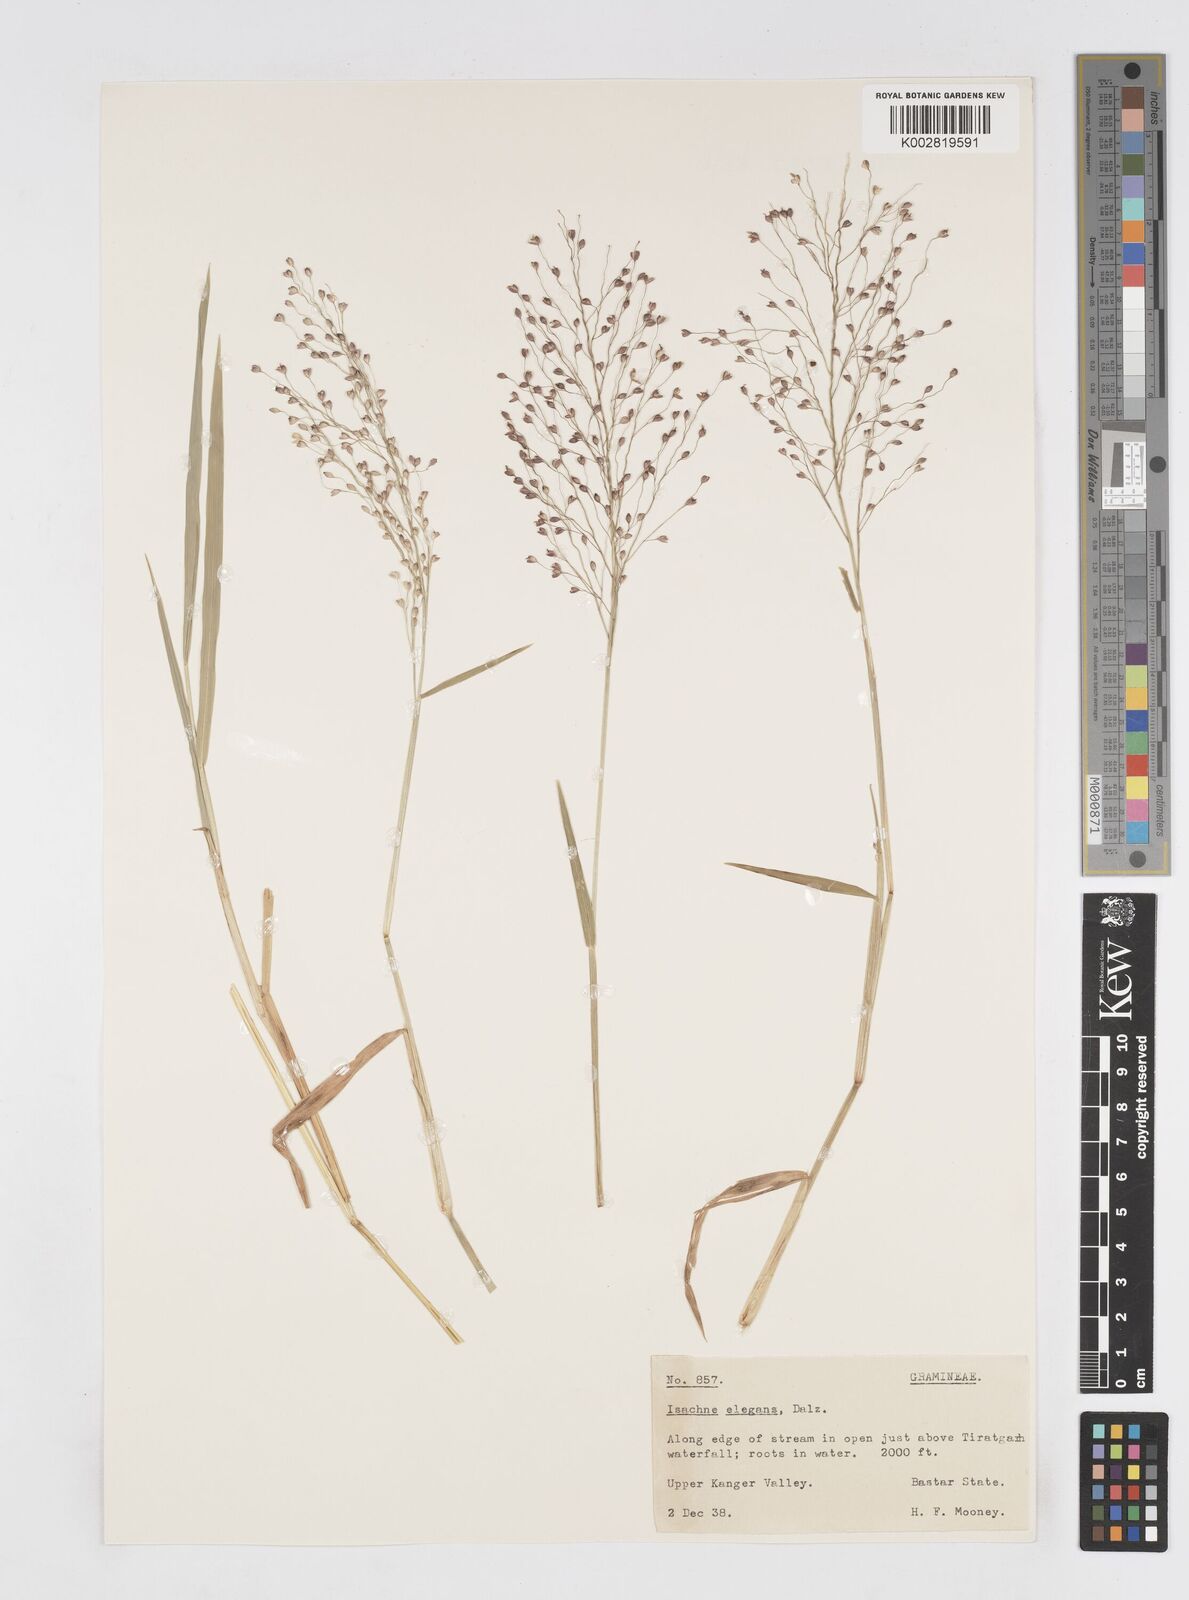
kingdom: Plantae
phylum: Tracheophyta
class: Liliopsida
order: Poales
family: Poaceae
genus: Isachne
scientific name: Isachne elegans
